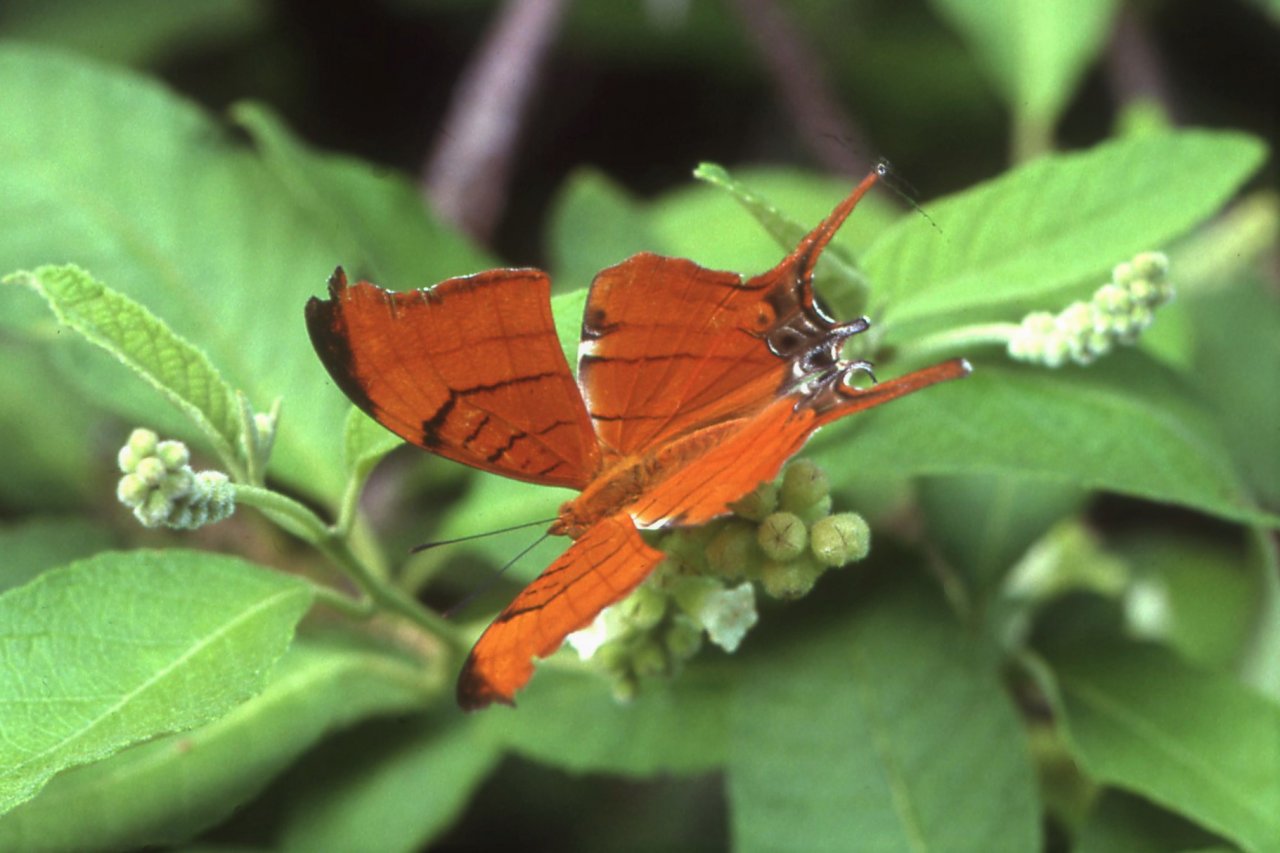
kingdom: Animalia
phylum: Arthropoda
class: Insecta
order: Lepidoptera
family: Nymphalidae
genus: Marpesia
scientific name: Marpesia eleuchea
